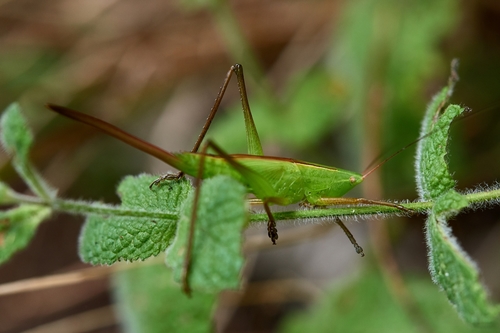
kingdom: Animalia
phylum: Arthropoda
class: Insecta
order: Orthoptera
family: Tettigoniidae
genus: Ruspolia
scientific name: Ruspolia nitidula
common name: Large conehead
